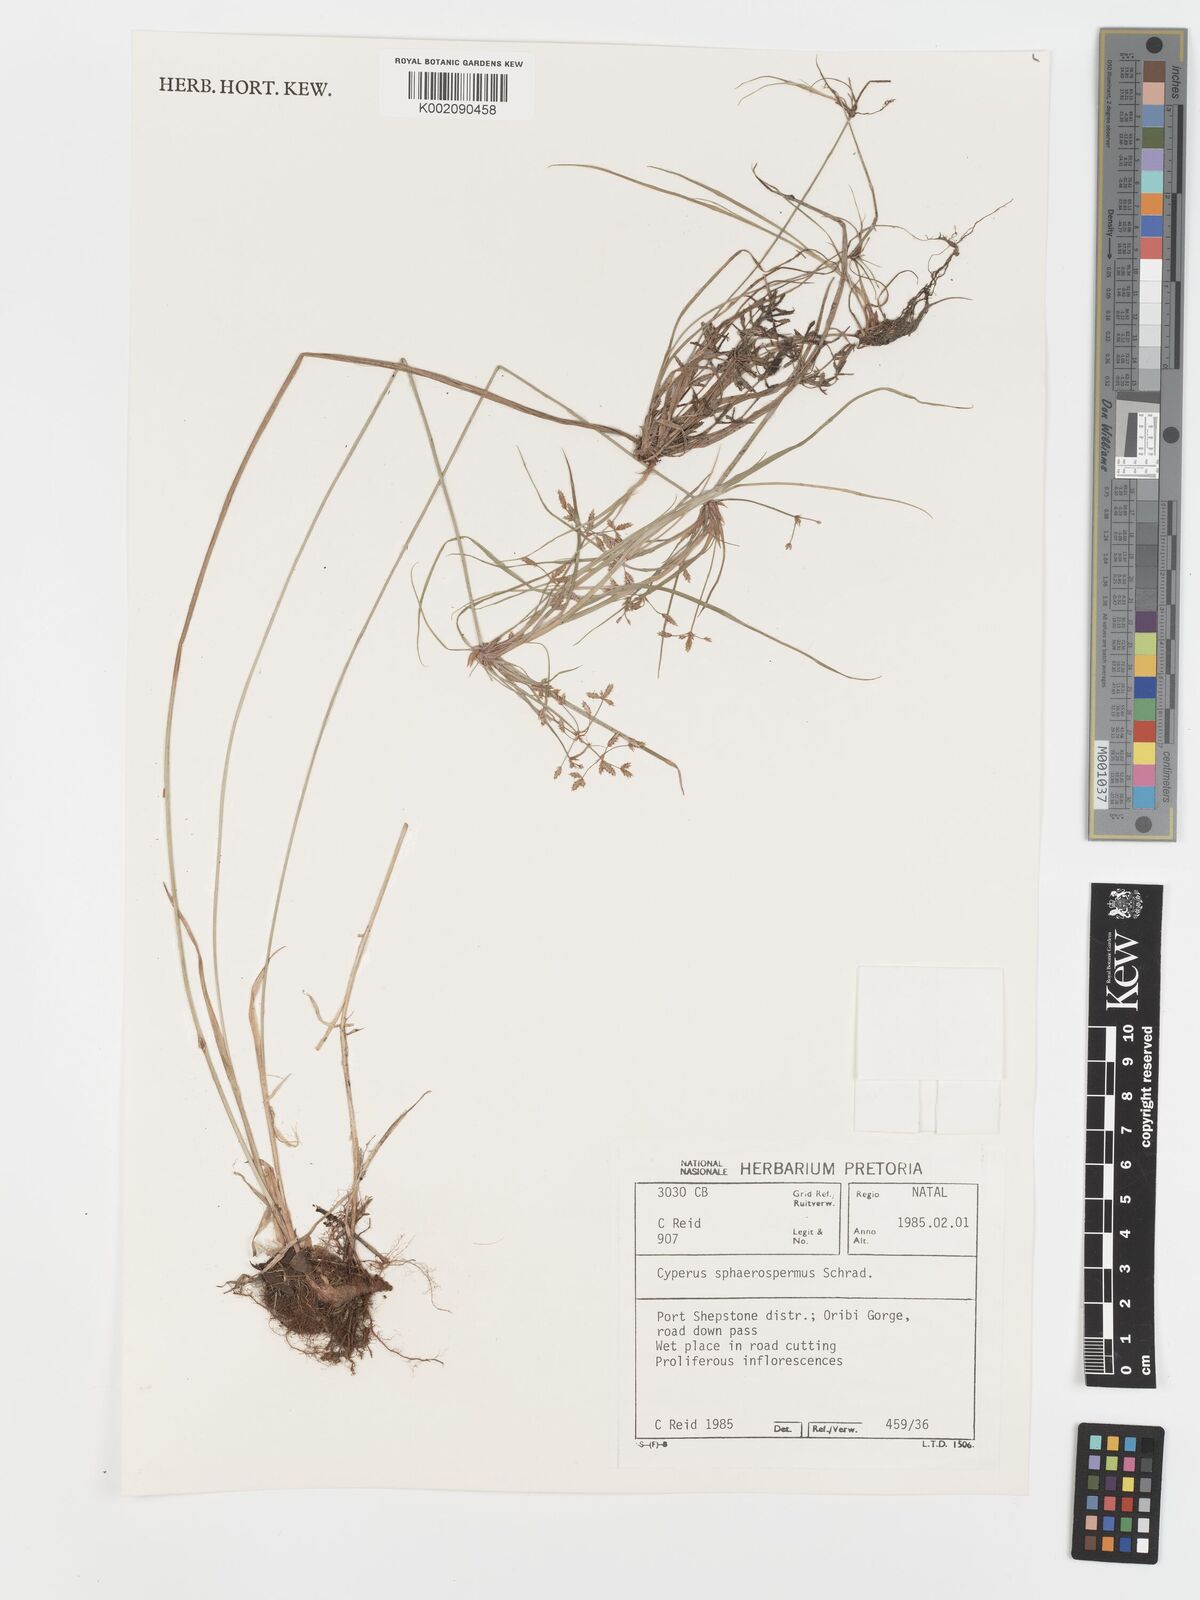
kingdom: Plantae
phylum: Tracheophyta
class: Liliopsida
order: Poales
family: Cyperaceae
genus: Cyperus
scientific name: Cyperus sphaerospermus
